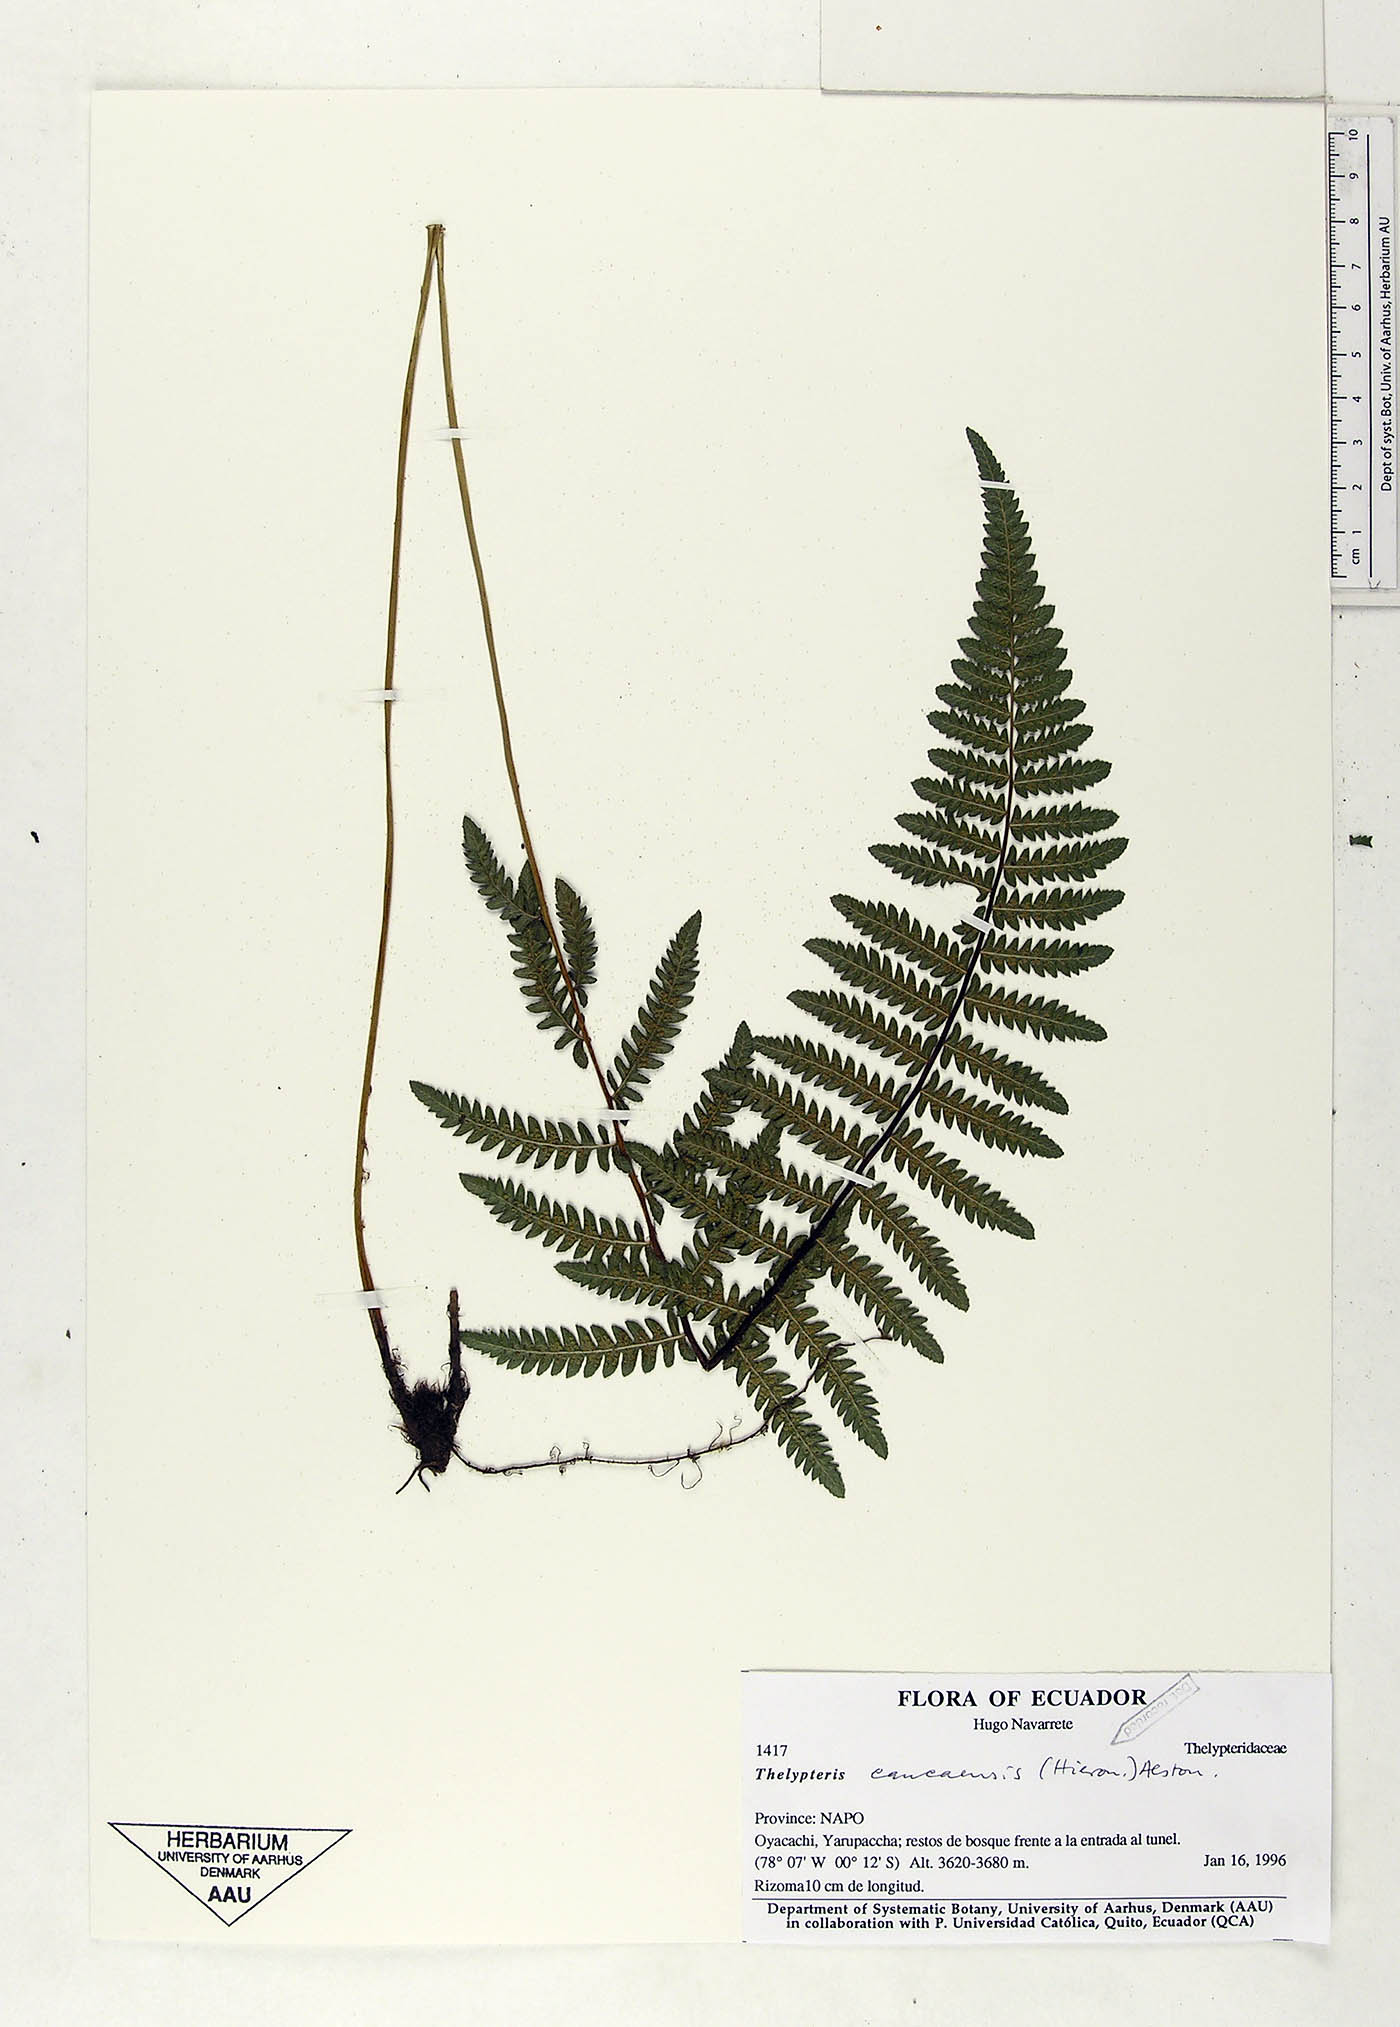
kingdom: Plantae
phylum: Tracheophyta
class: Polypodiopsida
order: Polypodiales
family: Thelypteridaceae
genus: Amauropelta
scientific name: Amauropelta caucaensis
